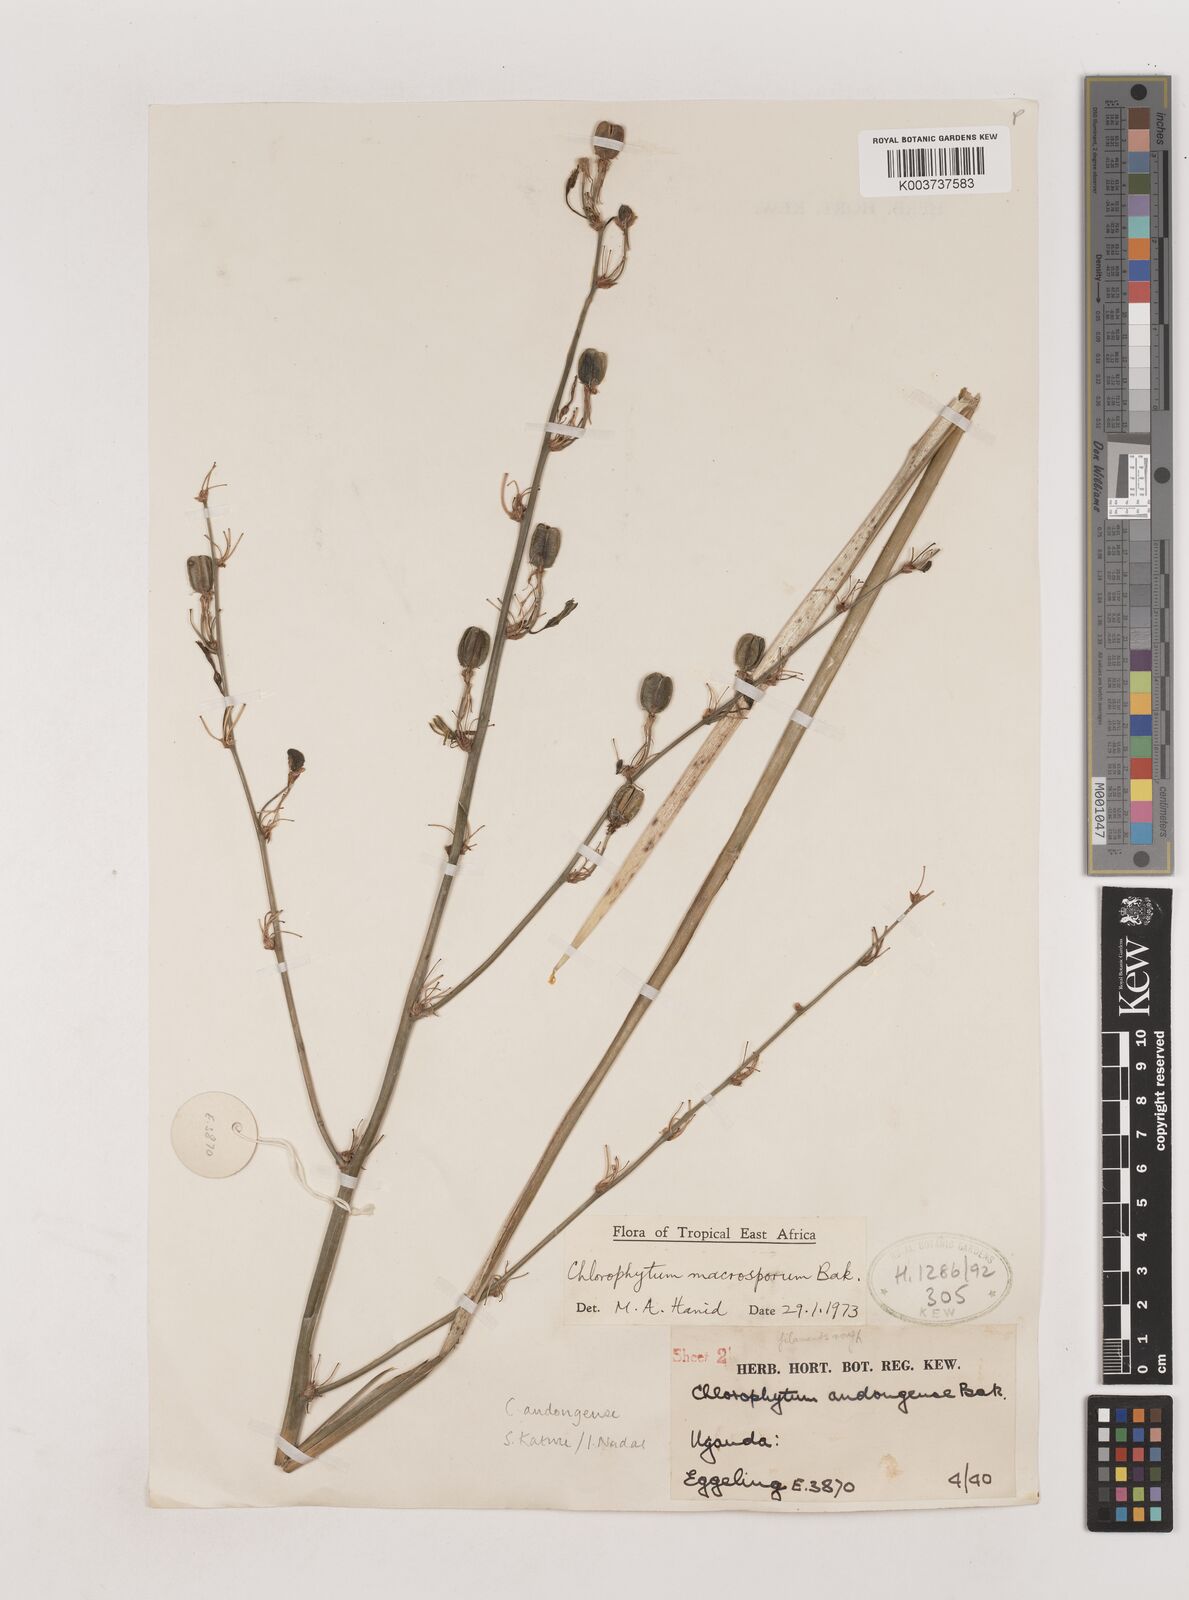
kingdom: Plantae
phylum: Tracheophyta
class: Liliopsida
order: Asparagales
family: Asparagaceae
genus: Chlorophytum
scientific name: Chlorophytum andongense
